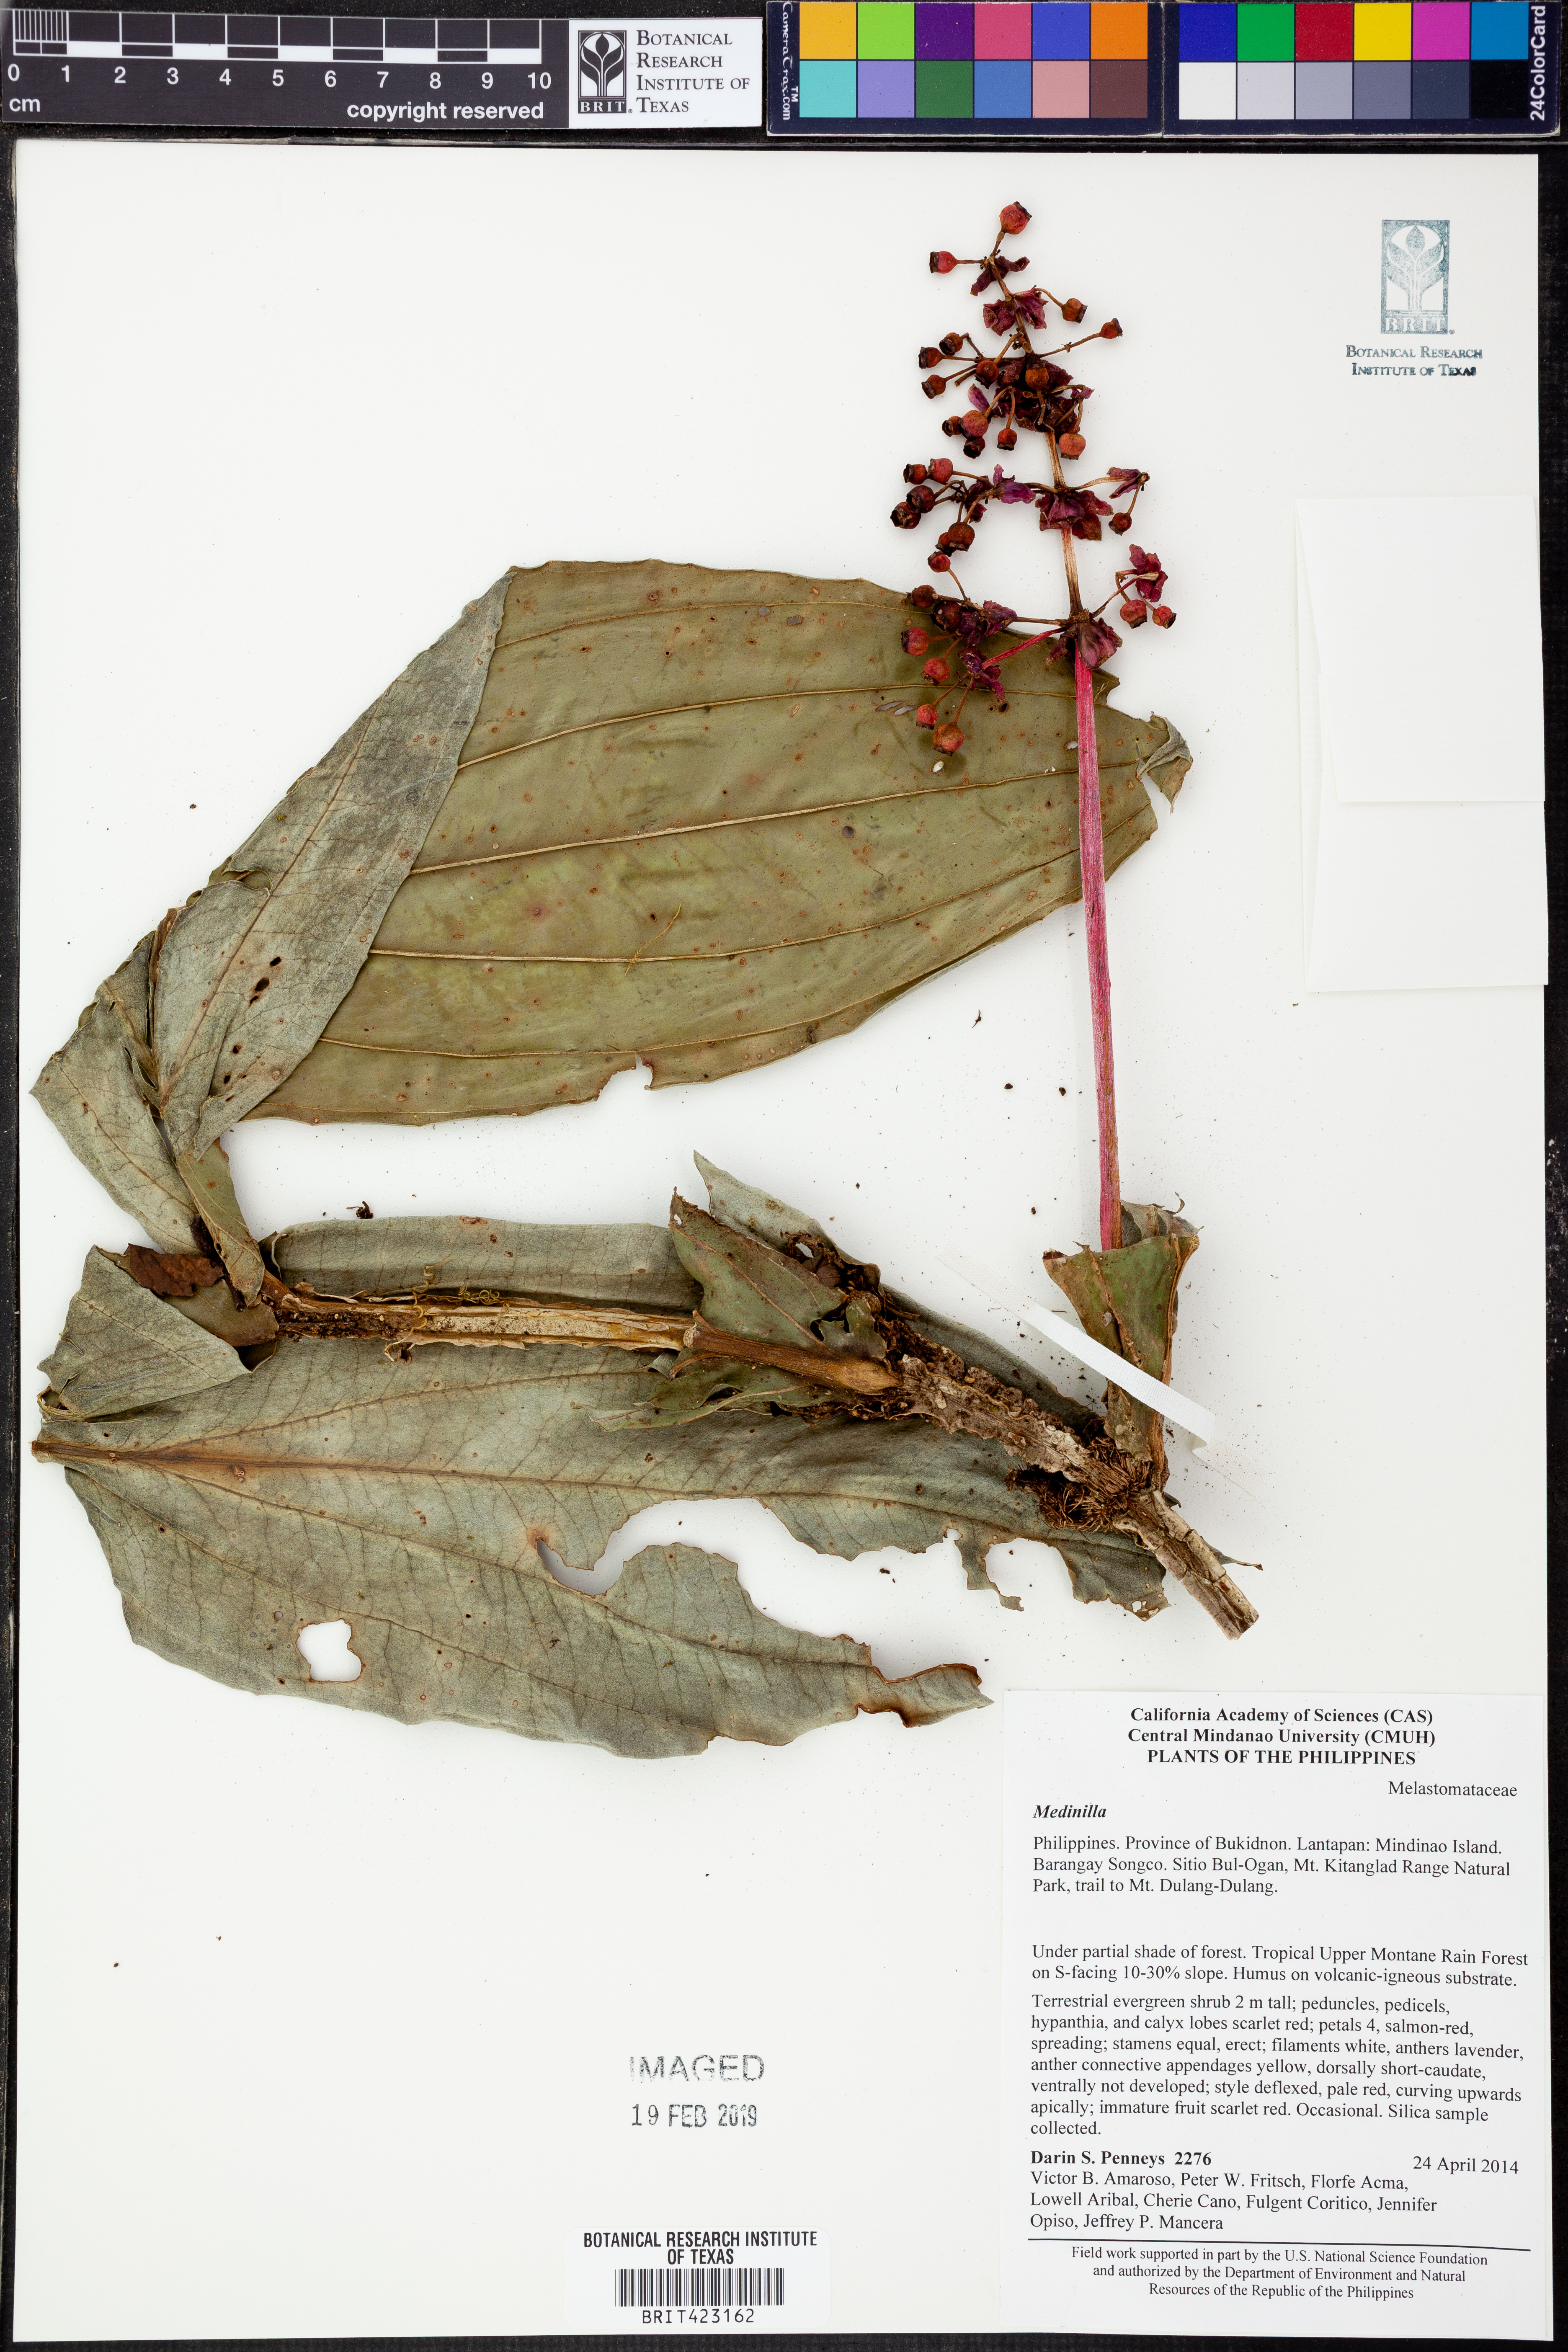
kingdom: Plantae
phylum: Tracheophyta
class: Magnoliopsida
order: Myrtales
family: Melastomataceae
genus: Medinilla
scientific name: Medinilla
